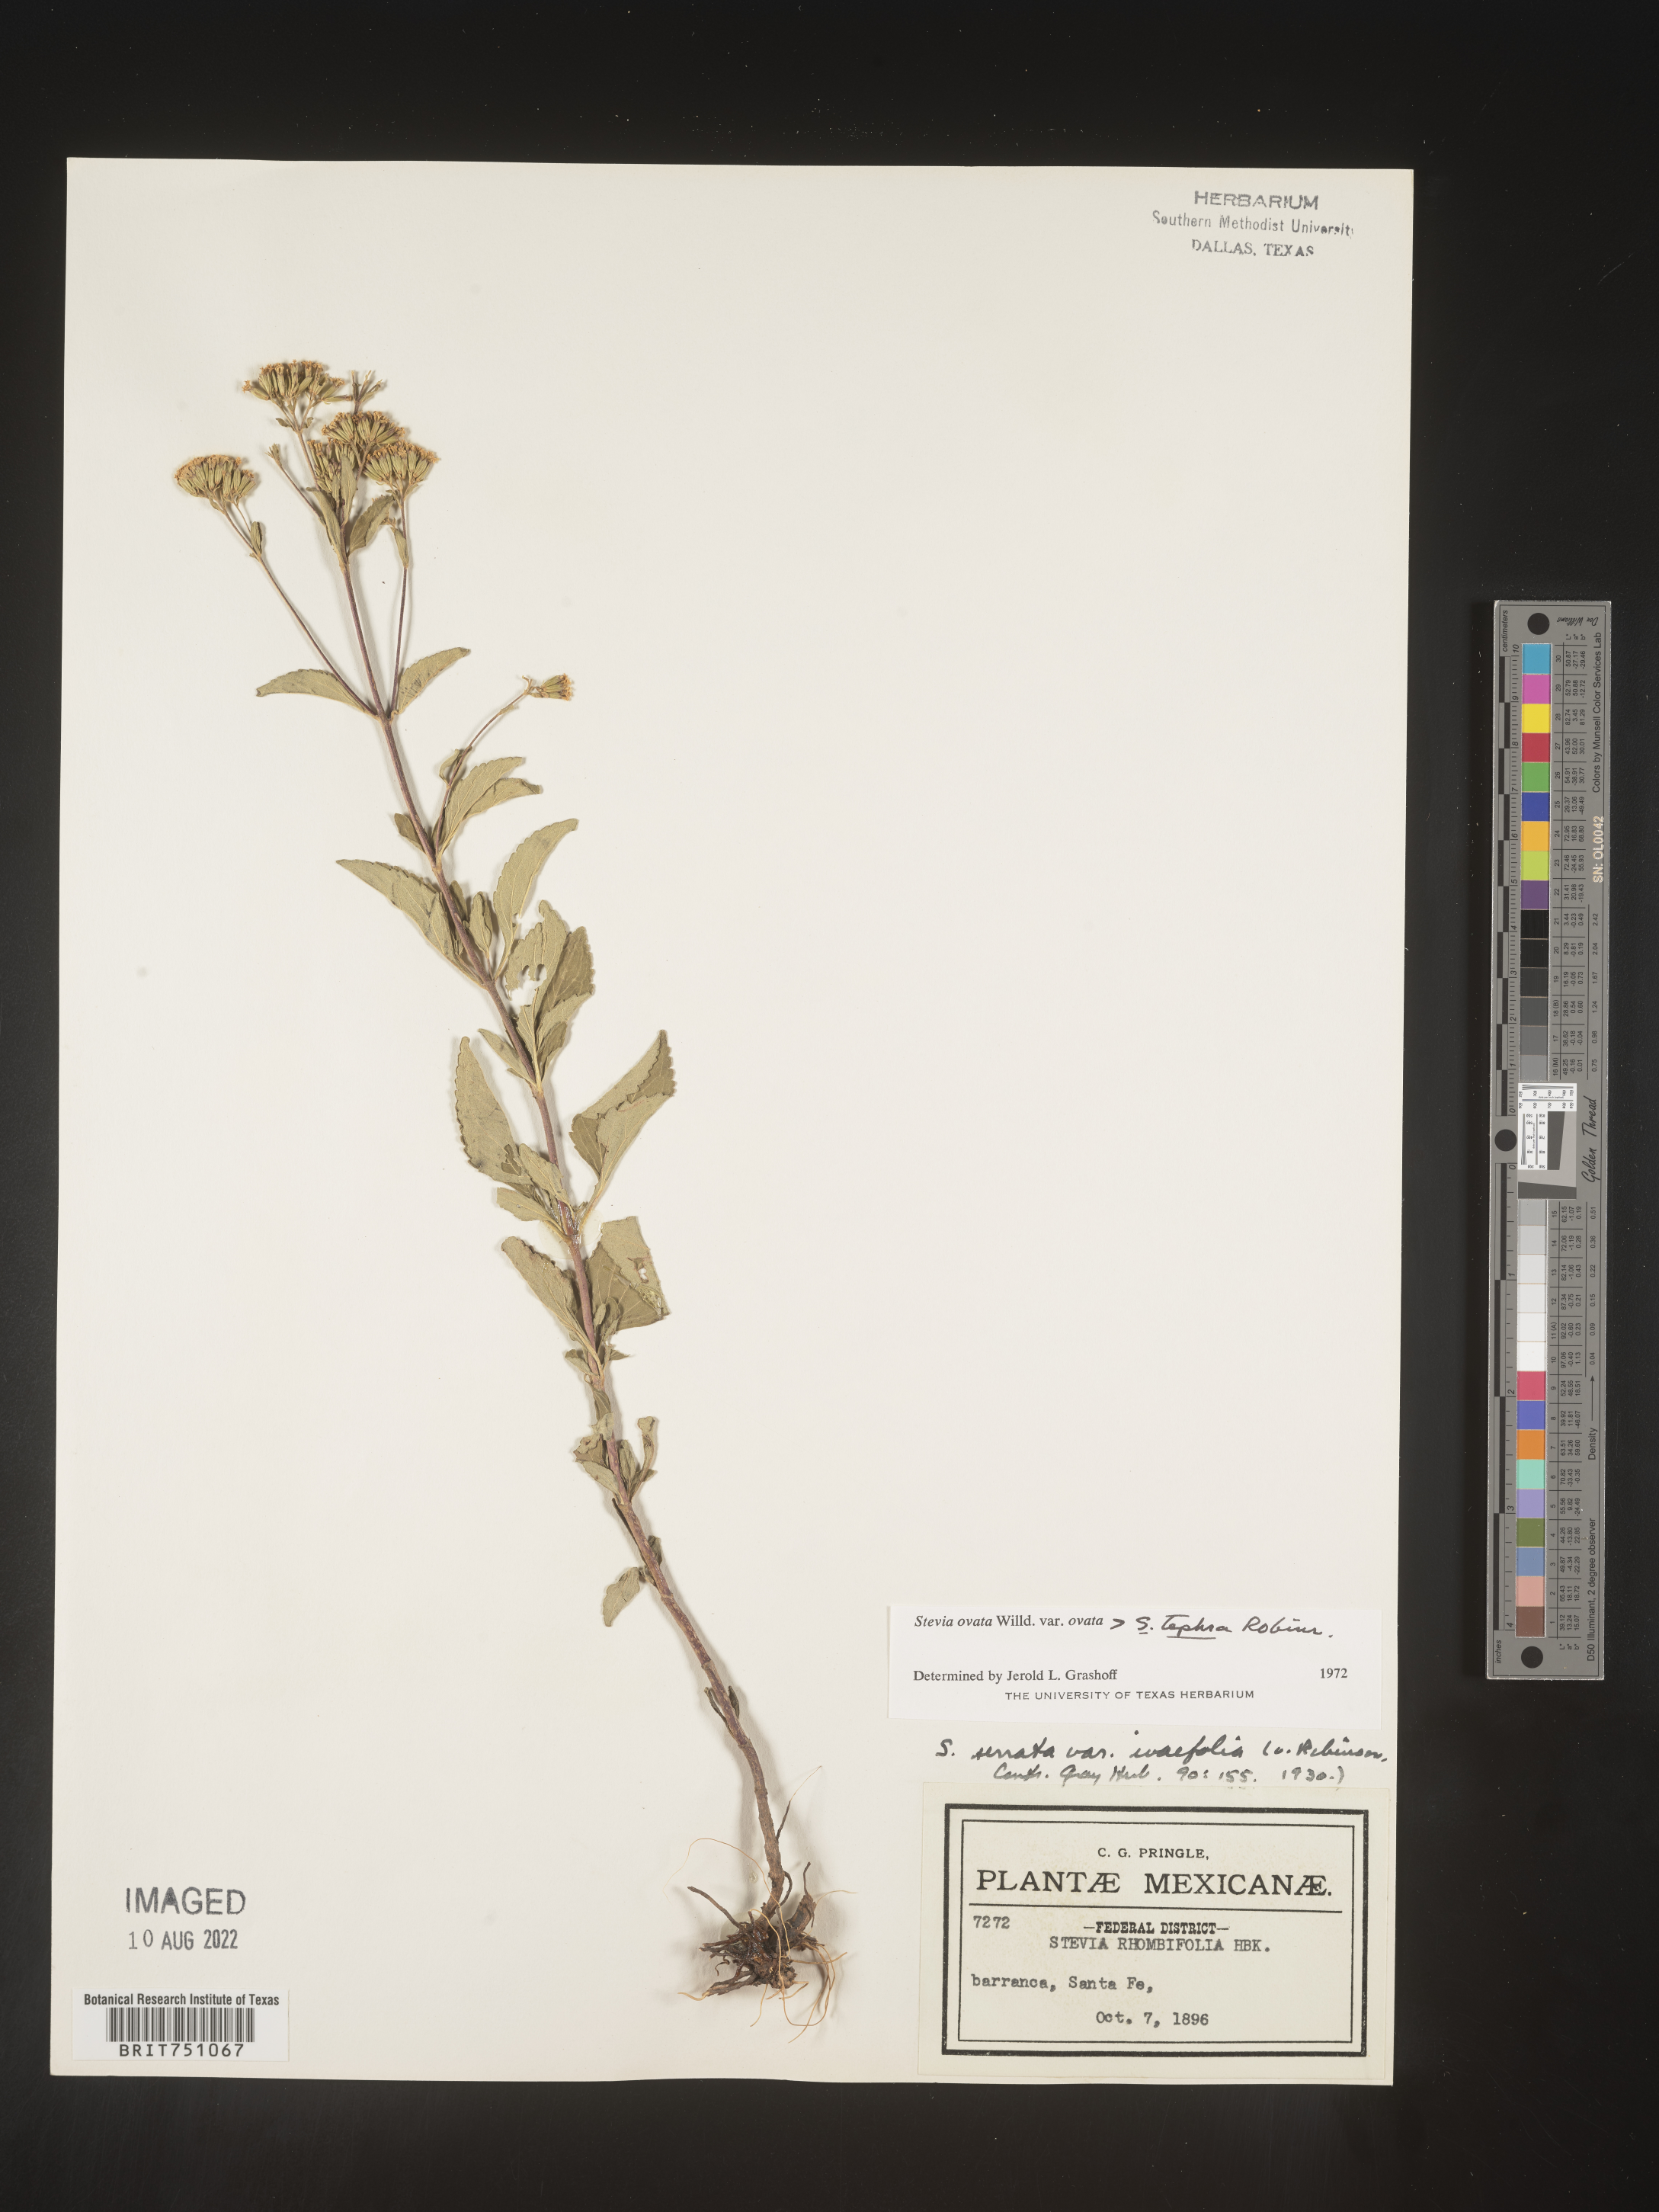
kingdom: Plantae
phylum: Tracheophyta
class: Magnoliopsida
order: Asterales
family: Asteraceae
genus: Stevia
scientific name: Stevia ovata
